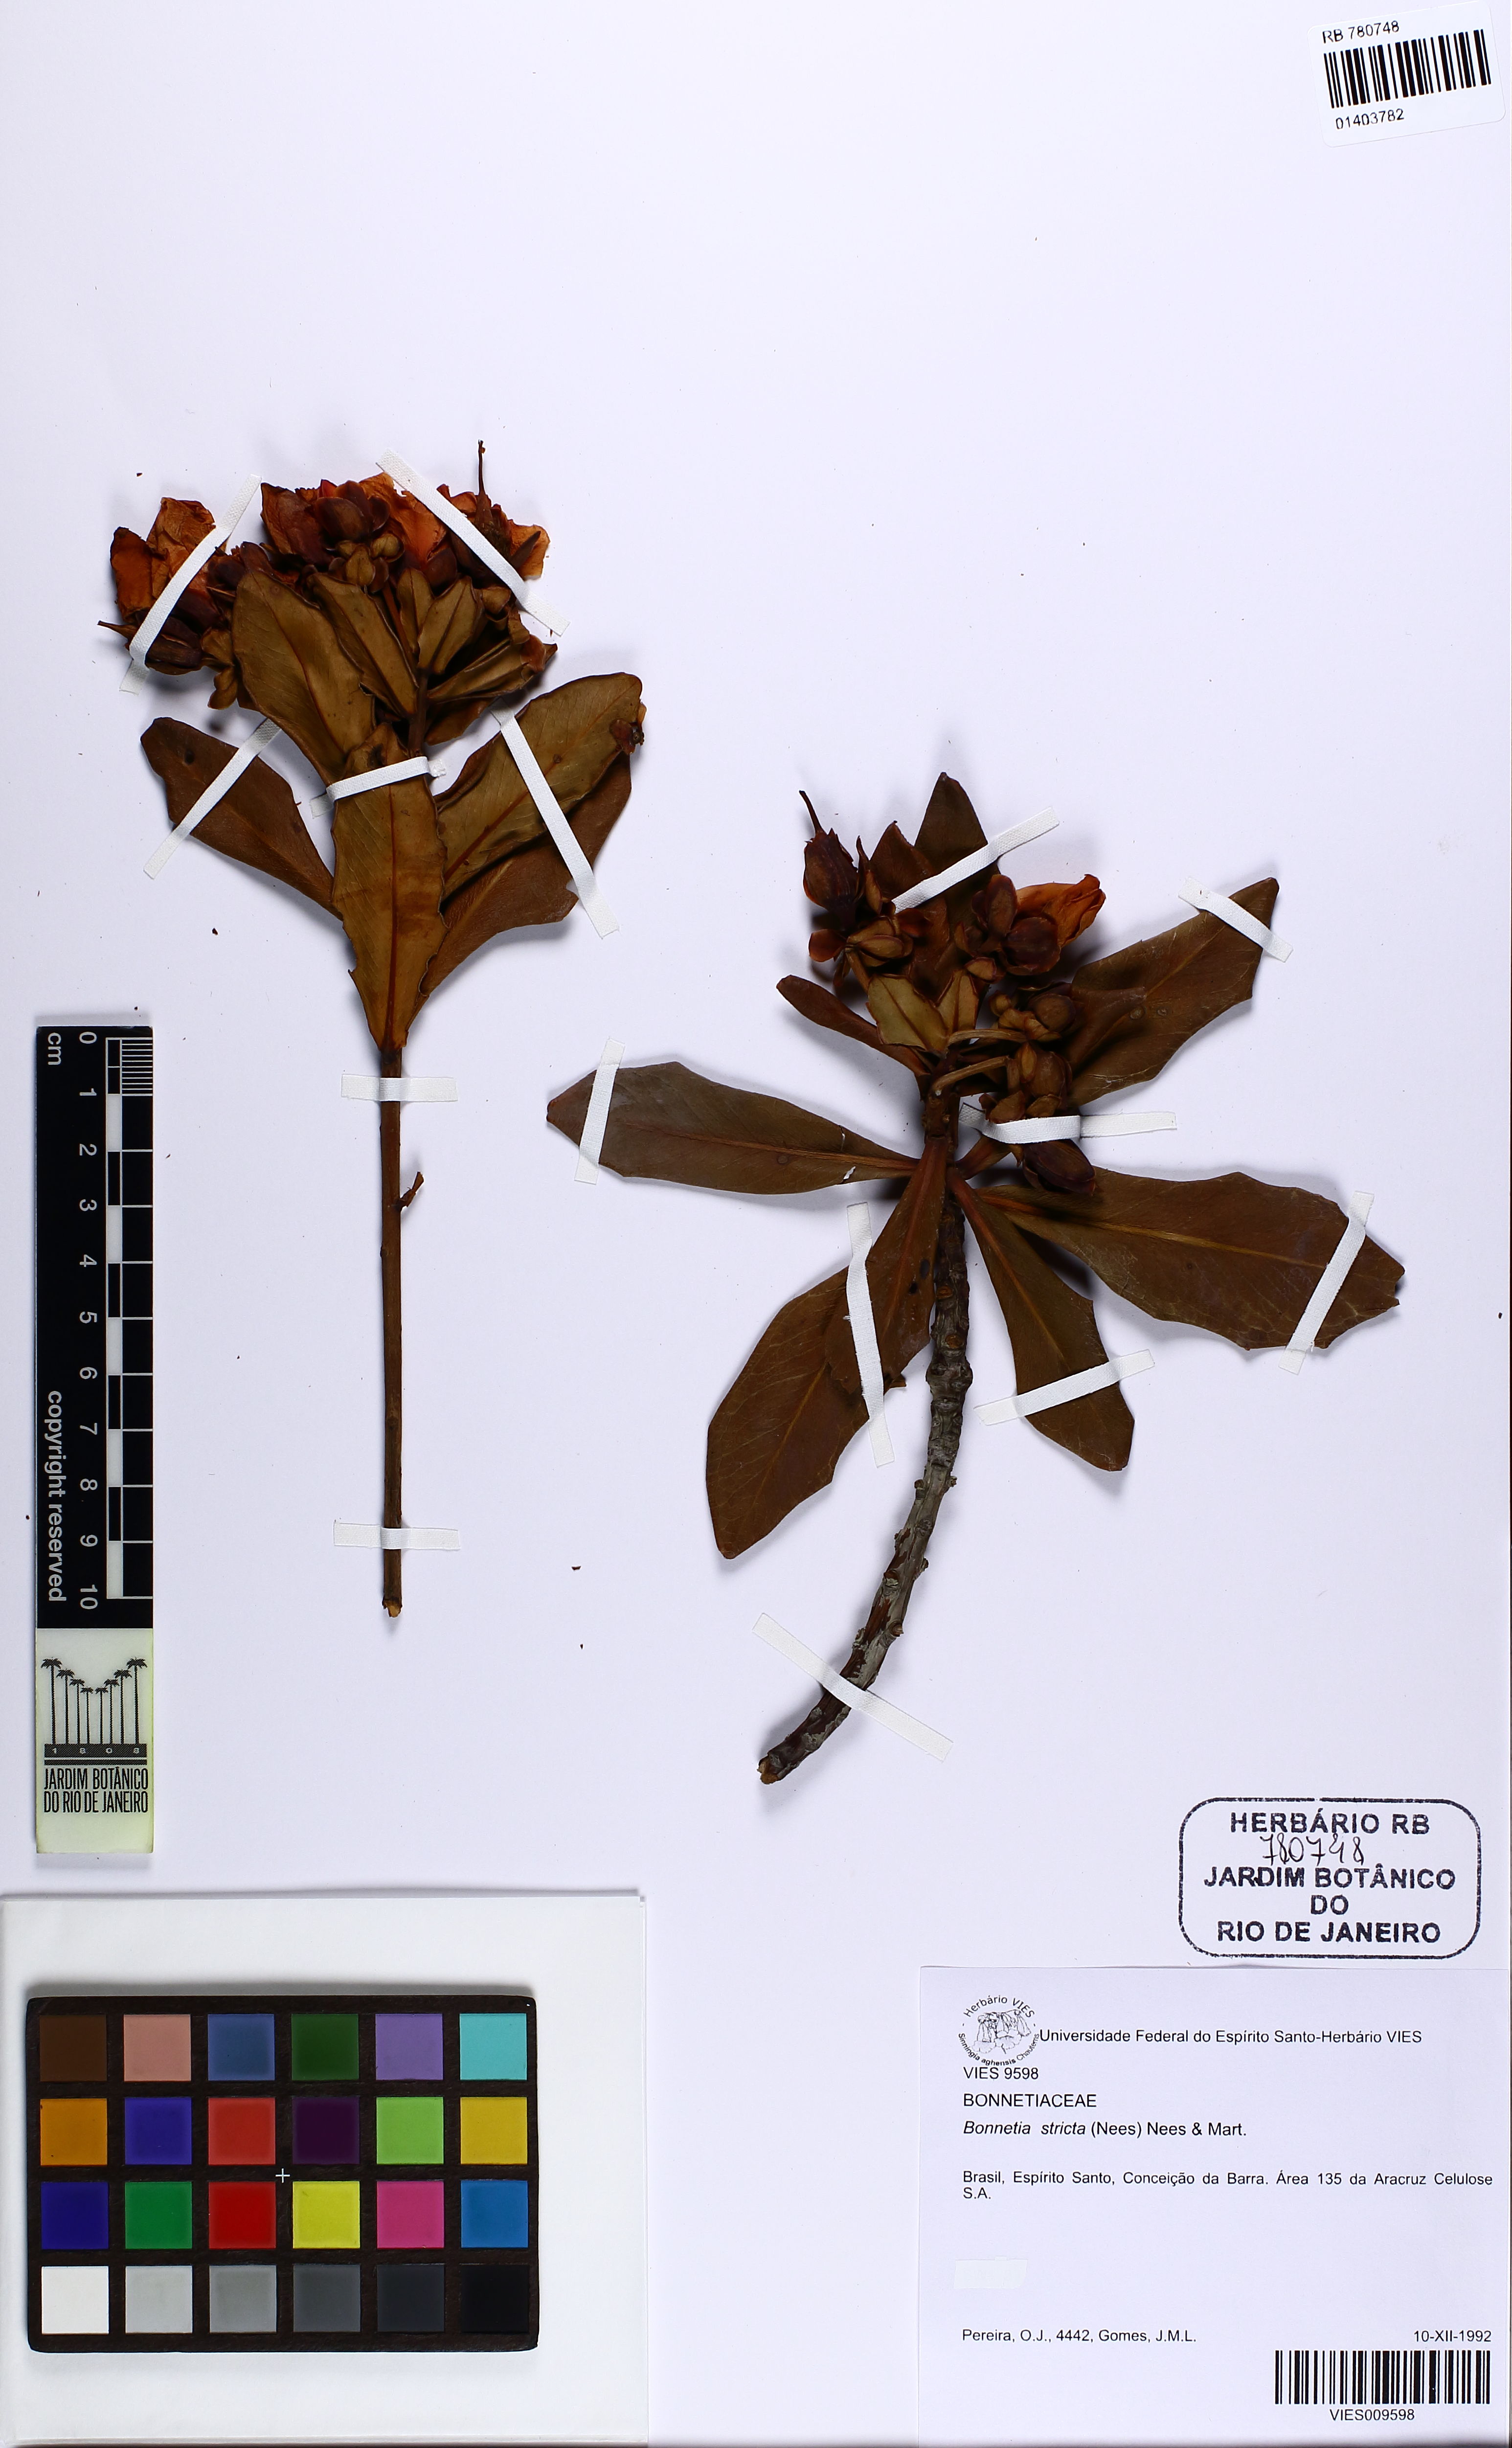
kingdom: Plantae
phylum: Tracheophyta
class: Magnoliopsida
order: Malpighiales
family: Bonnetiaceae
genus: Bonnetia
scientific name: Bonnetia stricta
